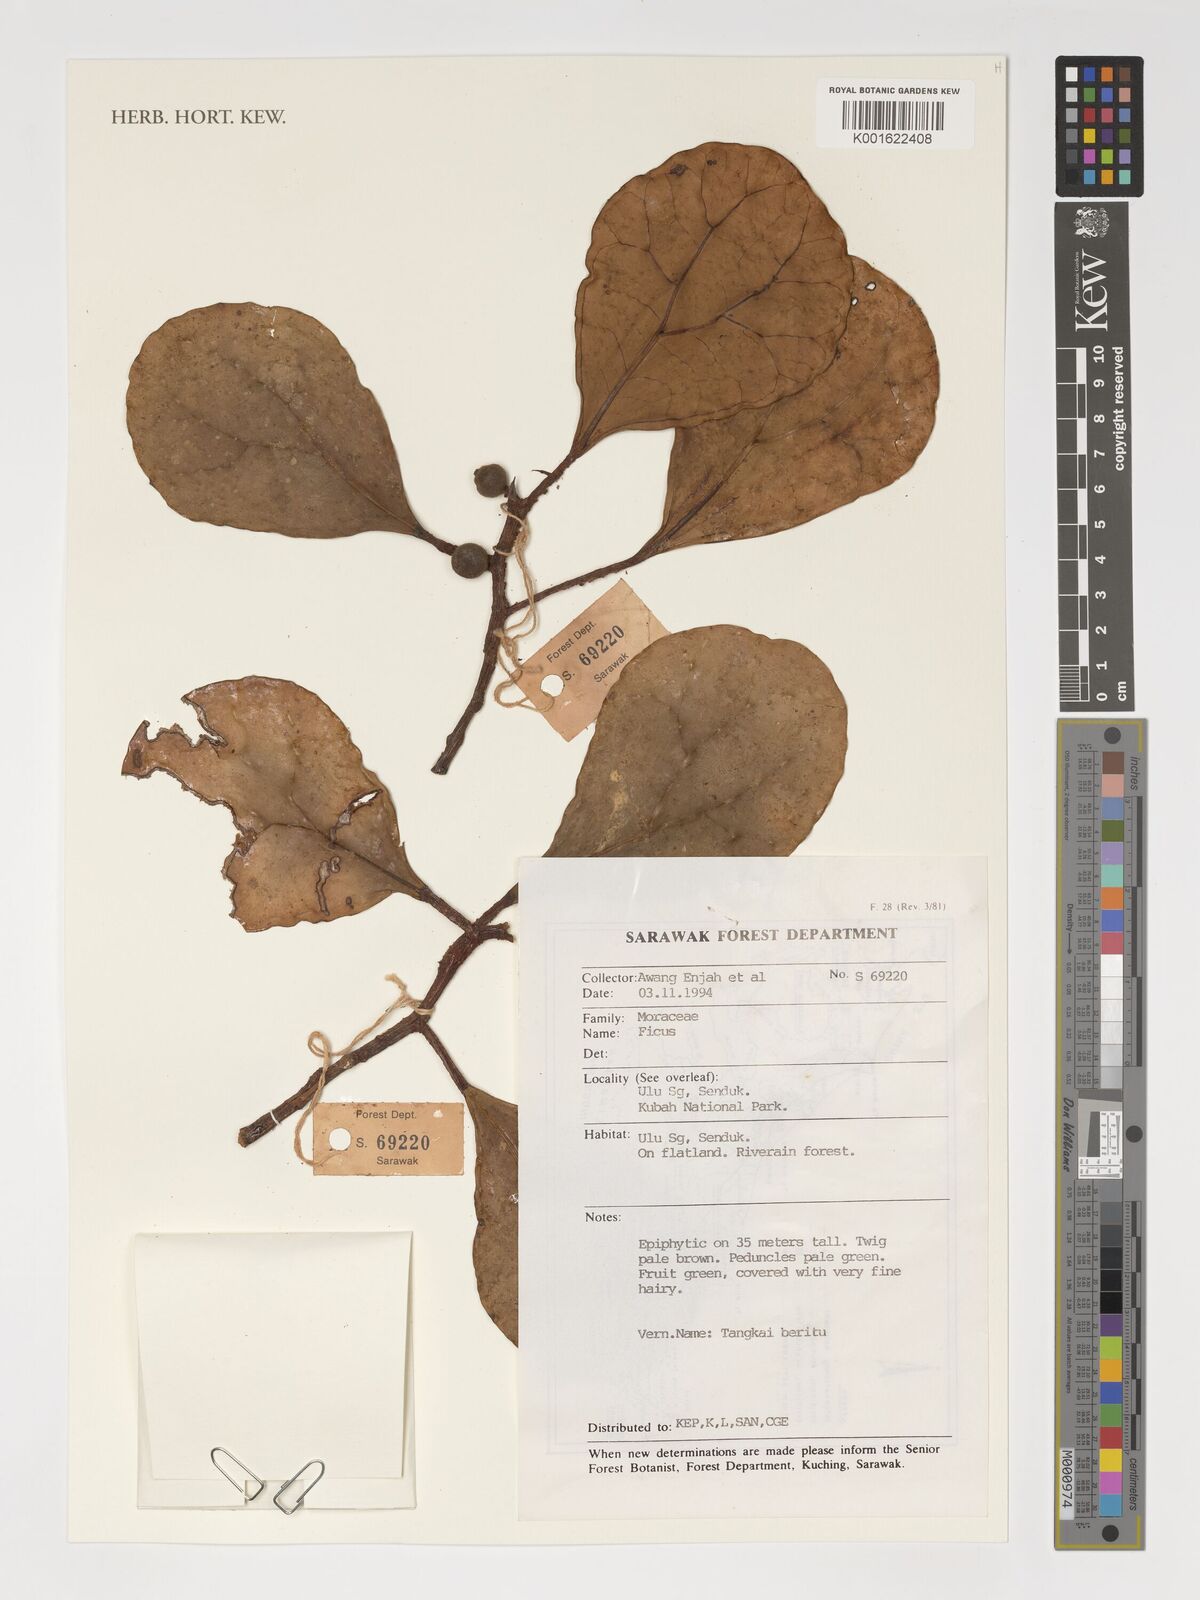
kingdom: Plantae
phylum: Tracheophyta
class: Magnoliopsida
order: Rosales
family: Moraceae
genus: Ficus
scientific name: Ficus
